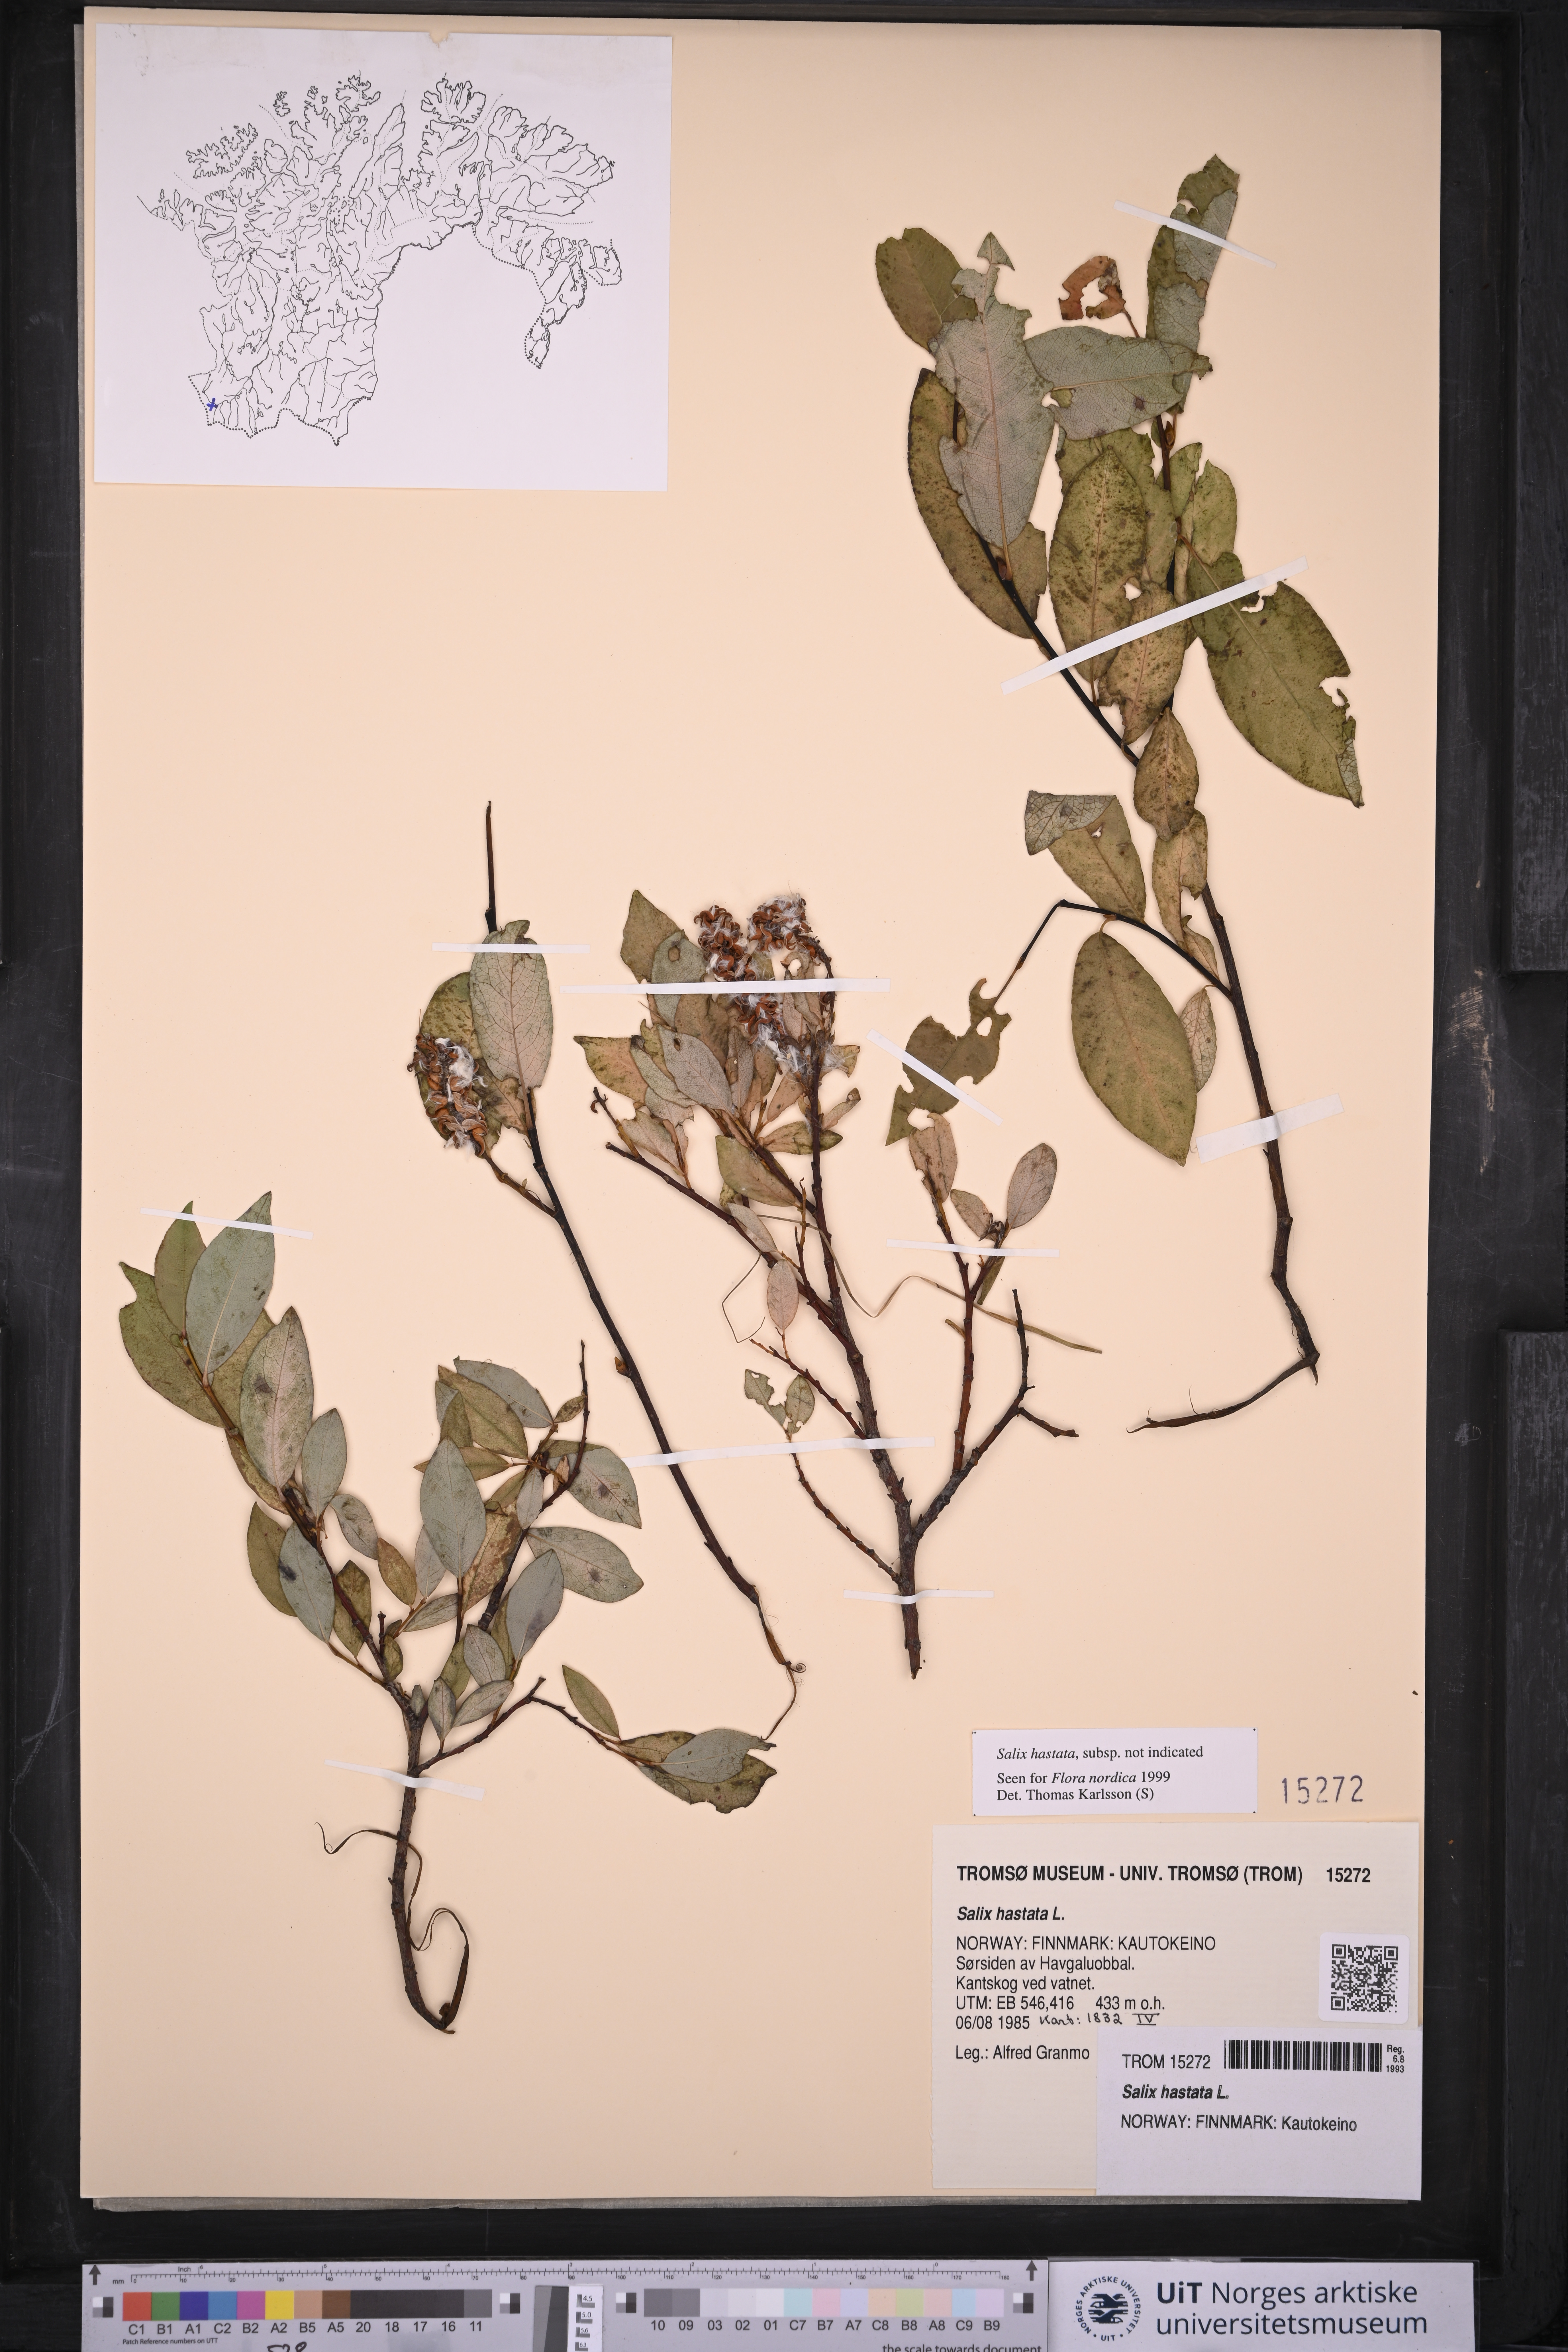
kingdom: Plantae
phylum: Tracheophyta
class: Magnoliopsida
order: Malpighiales
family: Salicaceae
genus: Salix
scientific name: Salix hastata
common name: Halberd willow
